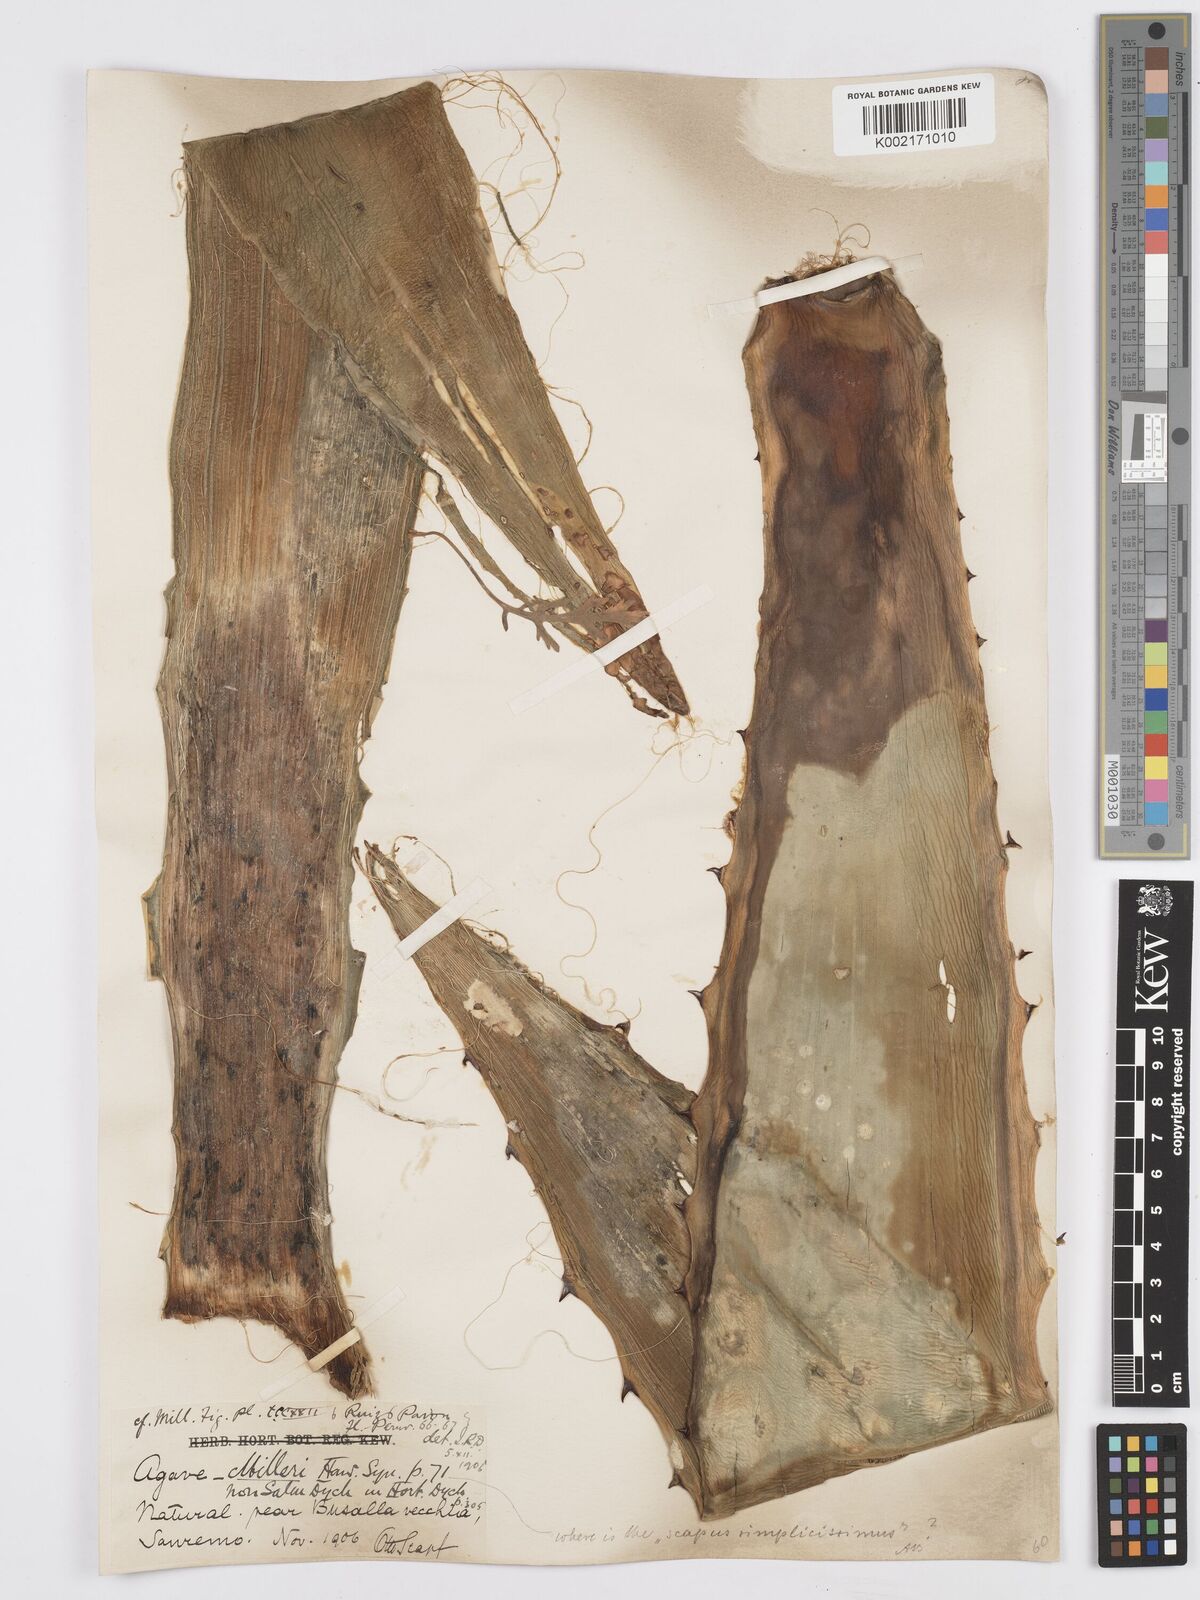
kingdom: Plantae
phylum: Tracheophyta
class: Liliopsida
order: Asparagales
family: Asparagaceae
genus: Agave
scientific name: Agave americana
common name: Centuryplant
